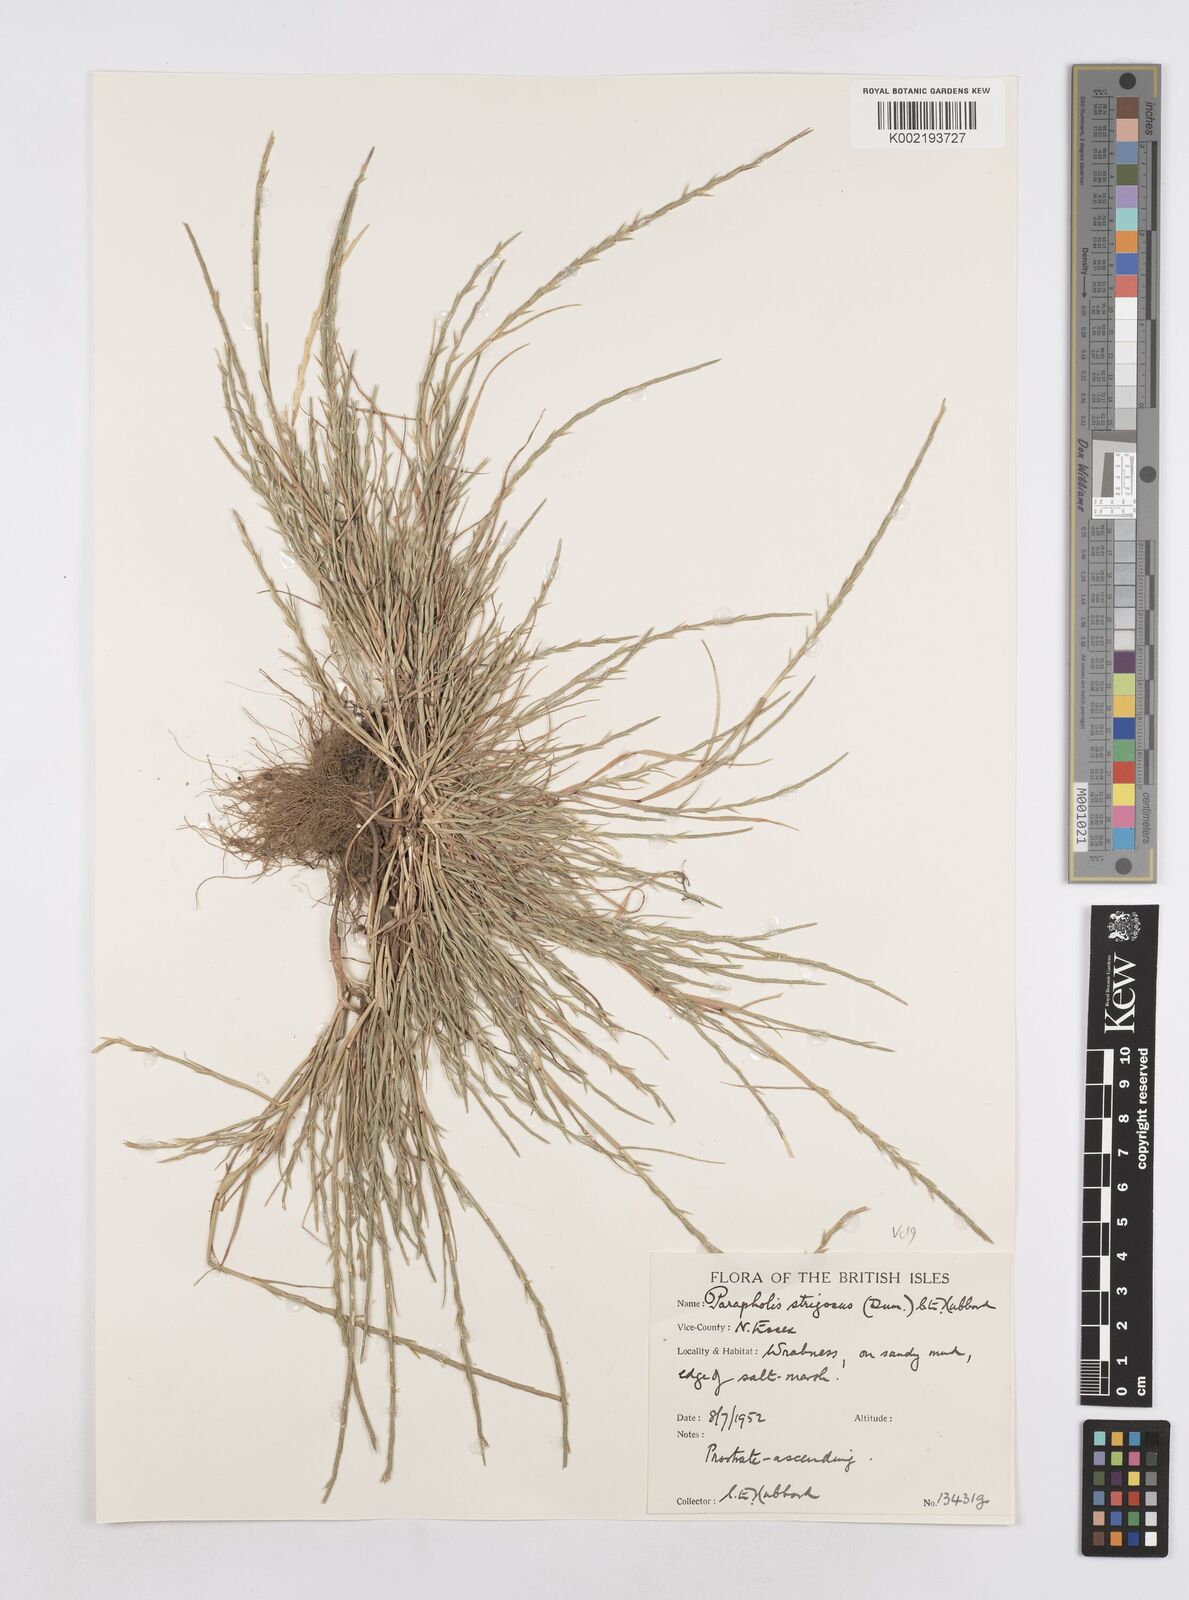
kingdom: Plantae
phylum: Tracheophyta
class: Liliopsida
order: Poales
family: Poaceae
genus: Parapholis
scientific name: Parapholis strigosa
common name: Hard-grass
